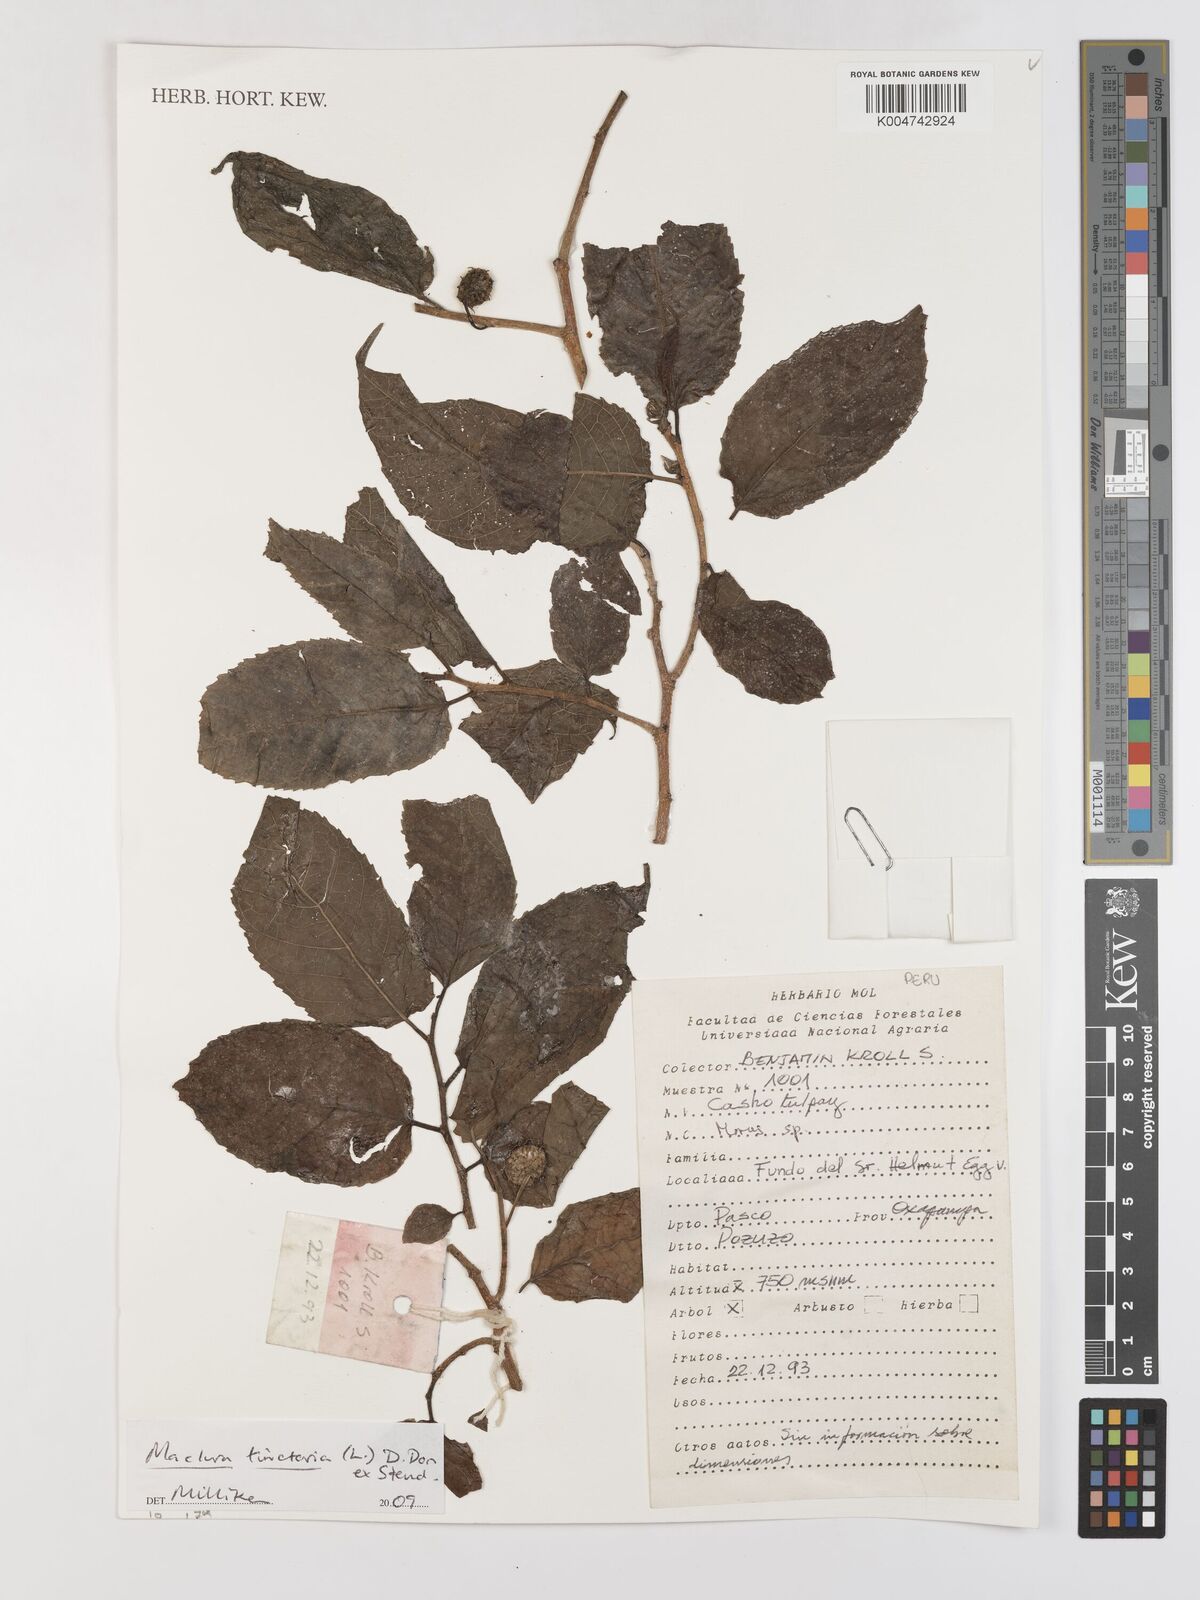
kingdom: Plantae
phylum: Tracheophyta
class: Magnoliopsida
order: Rosales
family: Moraceae
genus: Maclura
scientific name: Maclura tinctoria
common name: Old fustic
